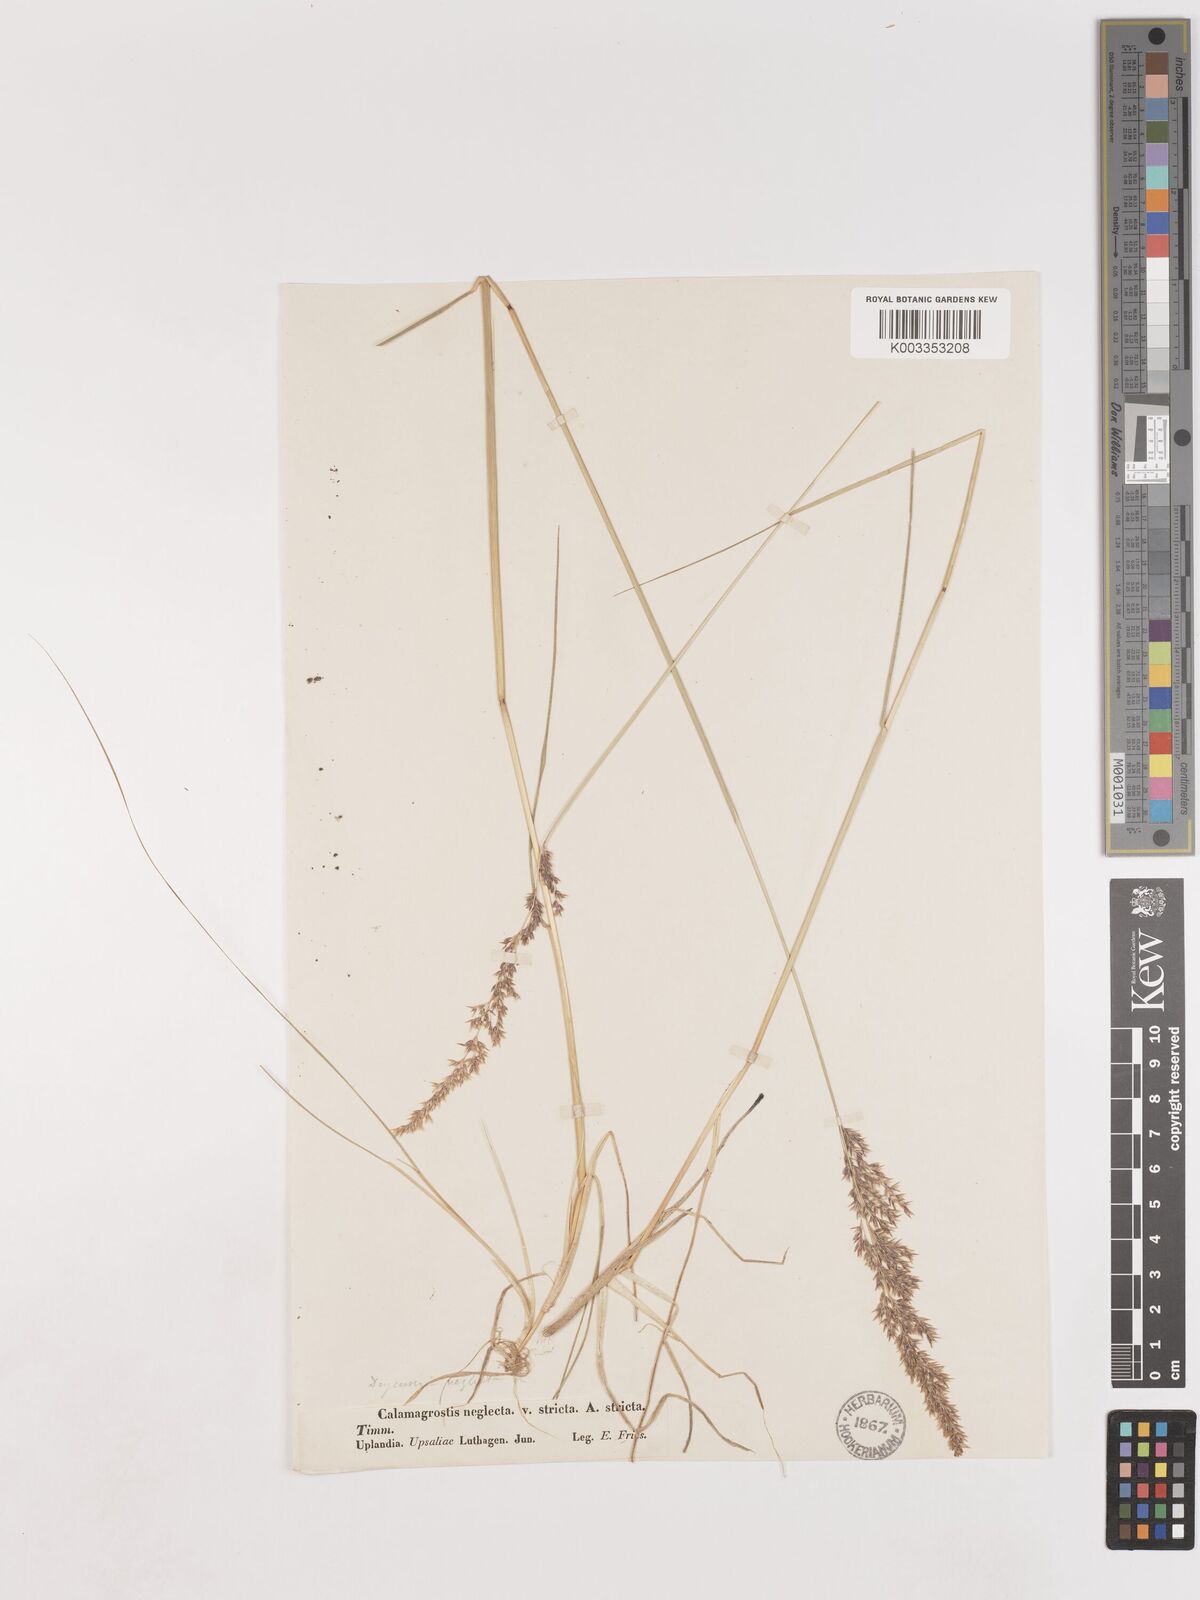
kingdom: Plantae
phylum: Tracheophyta
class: Liliopsida
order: Poales
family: Poaceae
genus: Cinnagrostis
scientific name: Cinnagrostis recta
